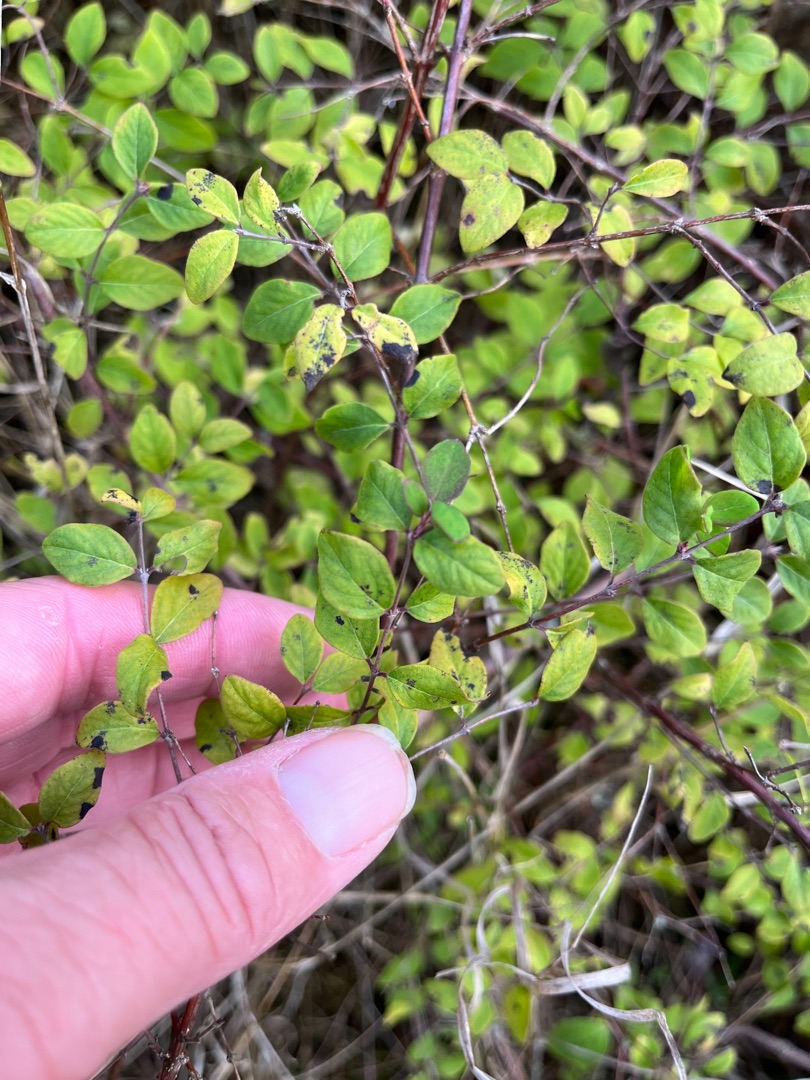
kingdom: Plantae
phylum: Tracheophyta
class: Magnoliopsida
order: Dipsacales
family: Caprifoliaceae
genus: Symphoricarpos
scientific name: Symphoricarpos chenaultii
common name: Rød snebær
